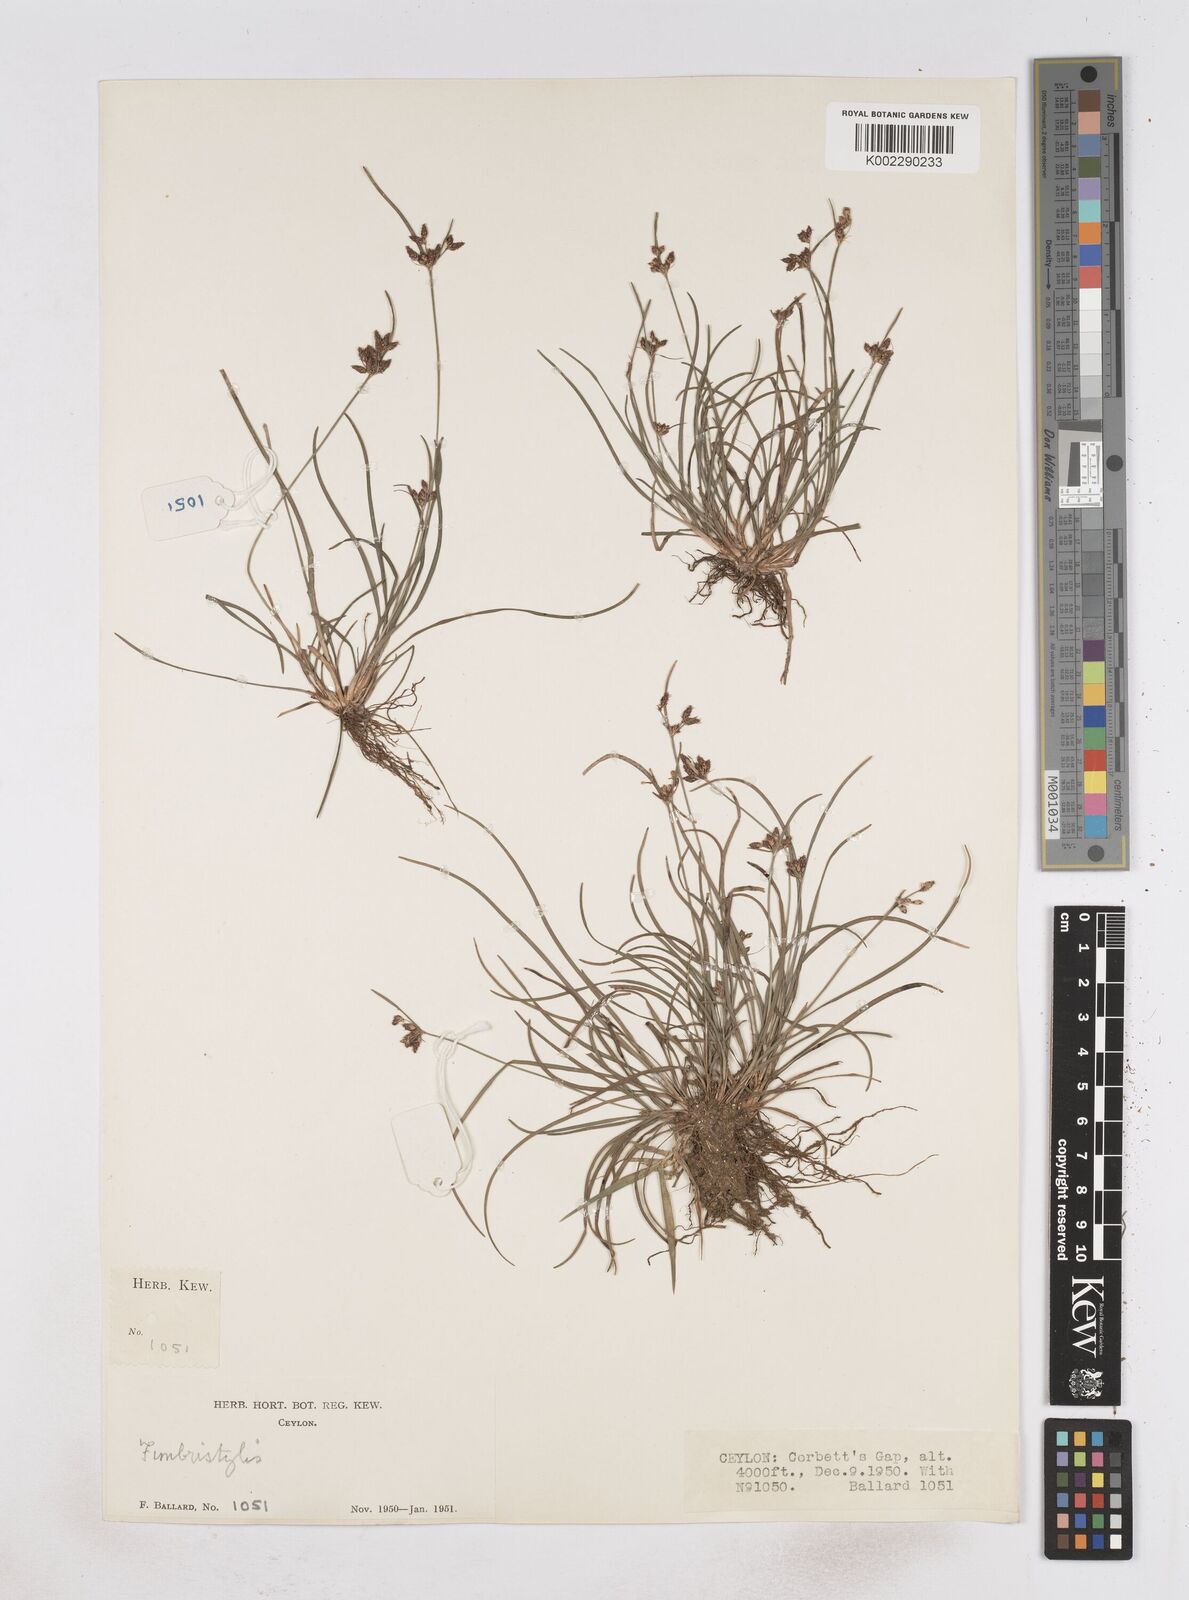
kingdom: Plantae
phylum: Tracheophyta
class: Liliopsida
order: Poales
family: Cyperaceae
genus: Fimbristylis
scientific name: Fimbristylis
